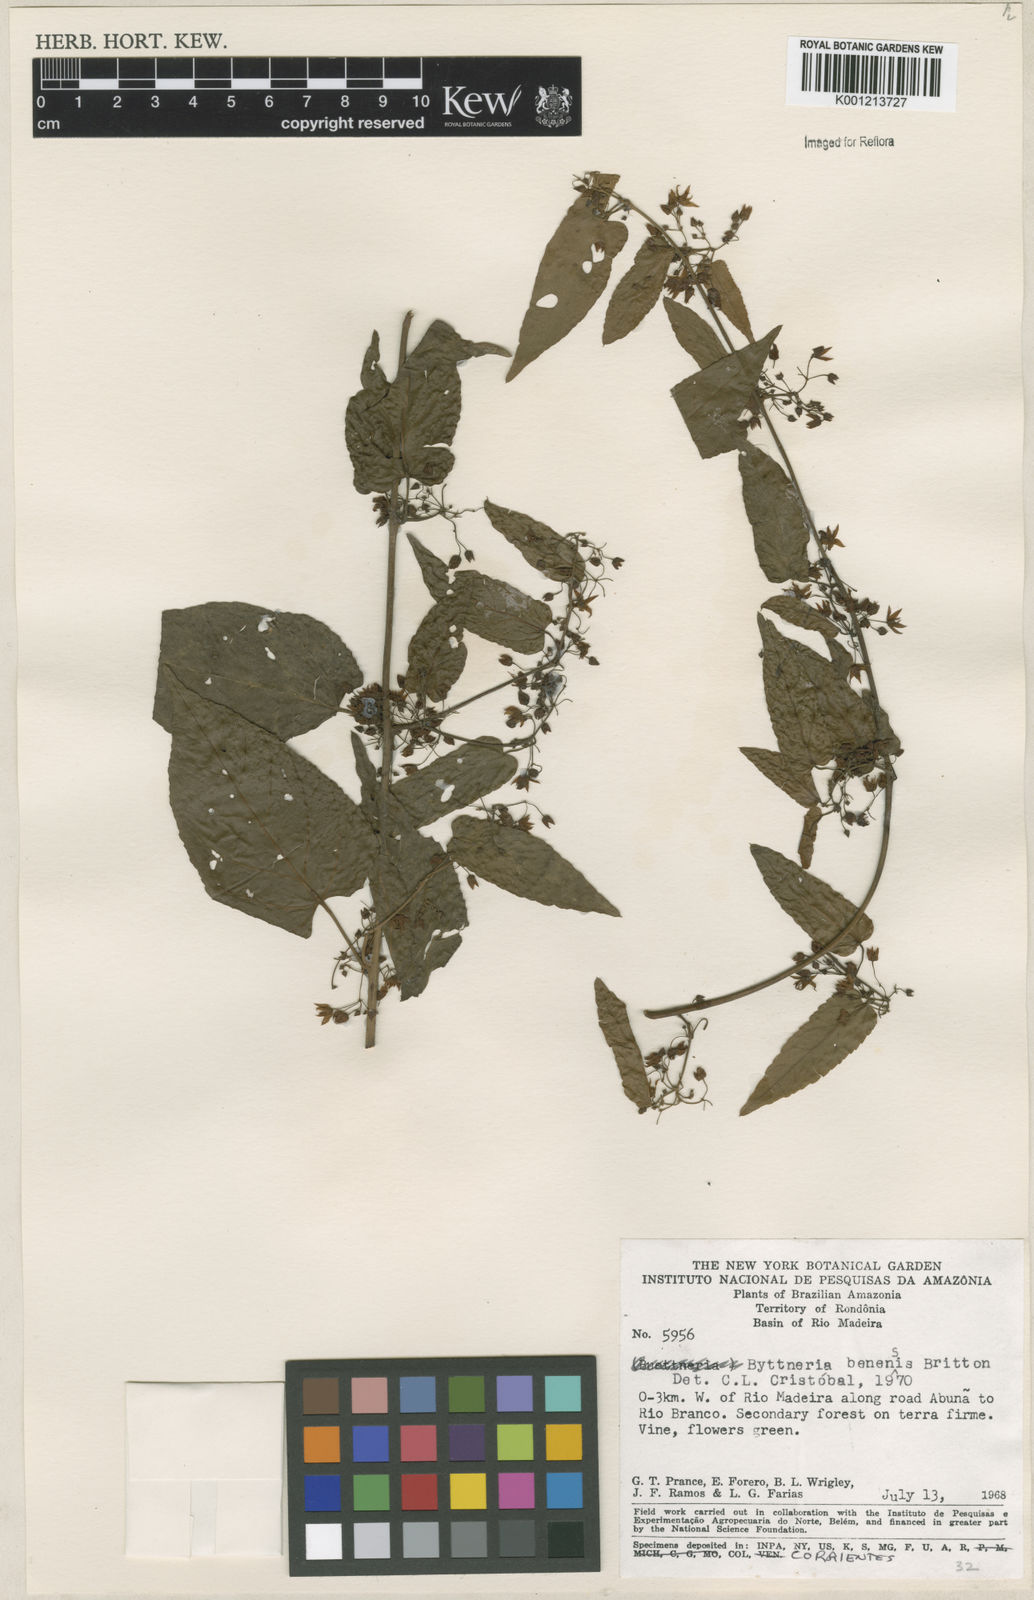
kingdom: Plantae
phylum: Tracheophyta
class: Magnoliopsida
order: Malvales
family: Malvaceae
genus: Byttneria
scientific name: Byttneria benensis
